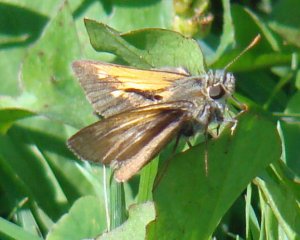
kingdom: Animalia
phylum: Arthropoda
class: Insecta
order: Lepidoptera
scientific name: Lepidoptera
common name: Butterflies
